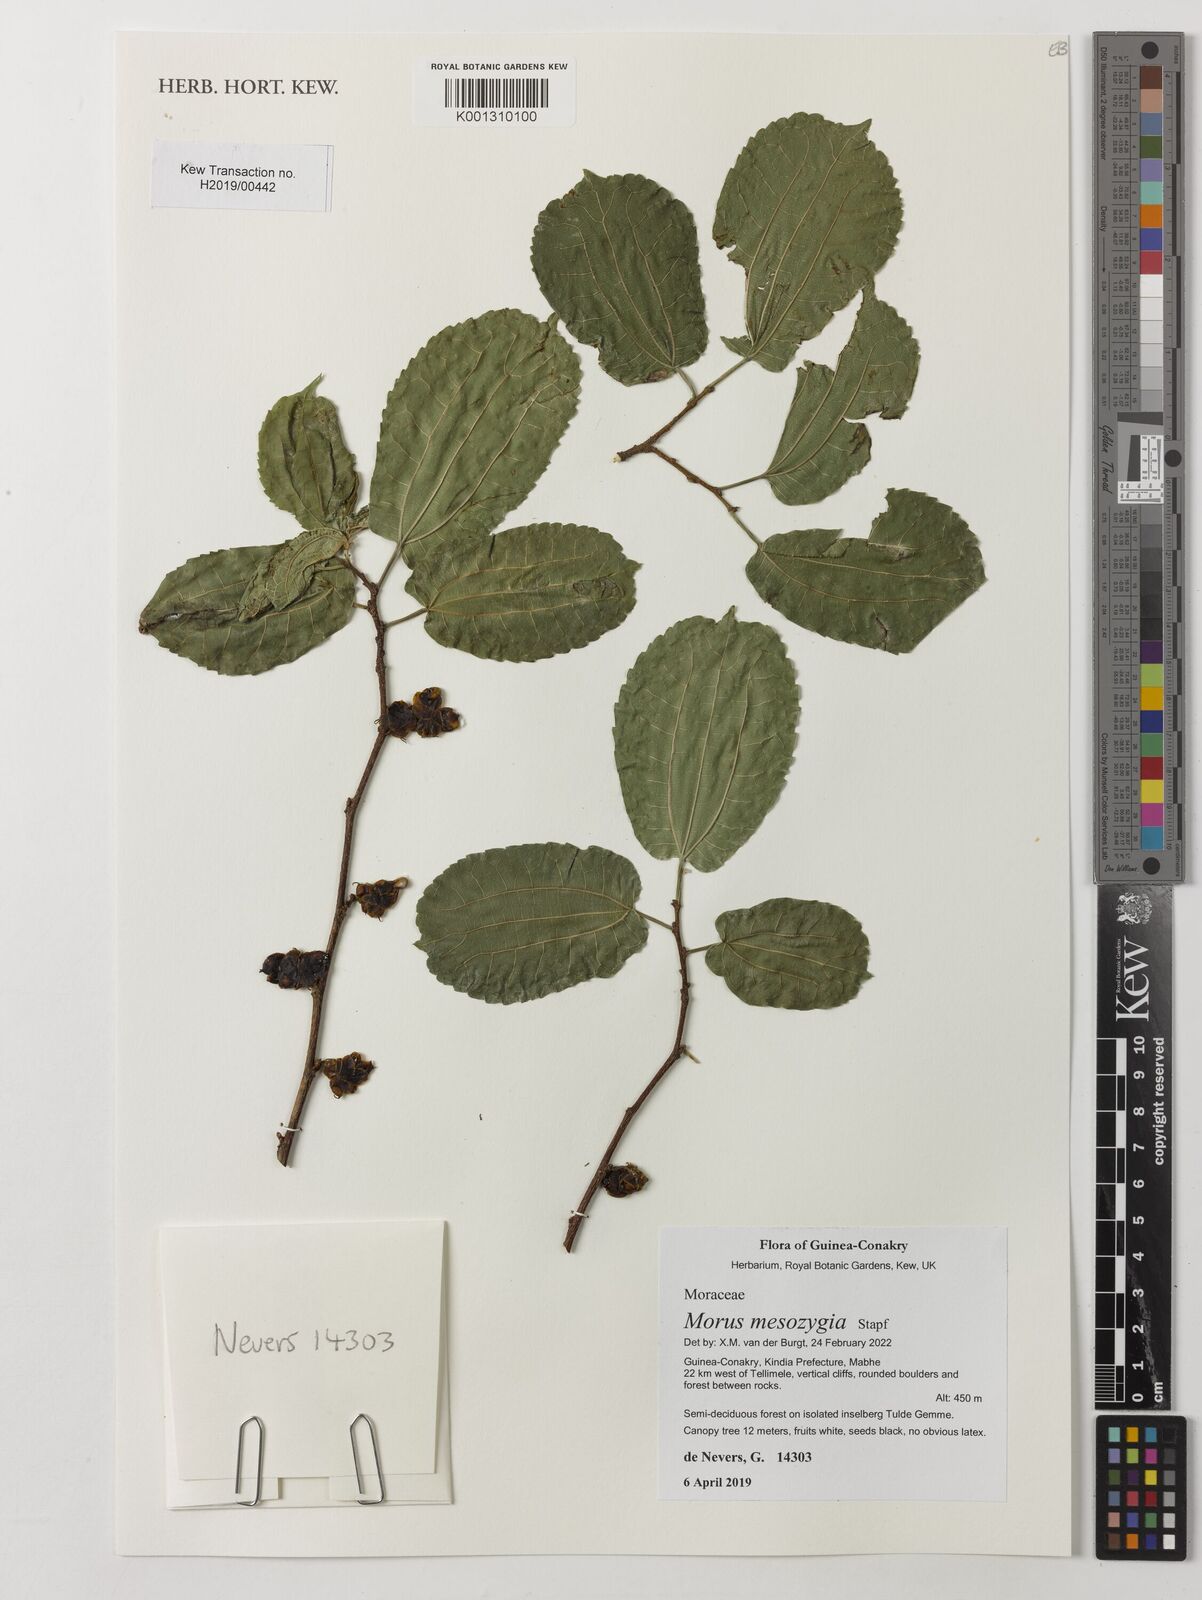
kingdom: Plantae
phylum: Tracheophyta
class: Magnoliopsida
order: Rosales
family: Moraceae
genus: Afromorus
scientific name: Afromorus mesozygia
